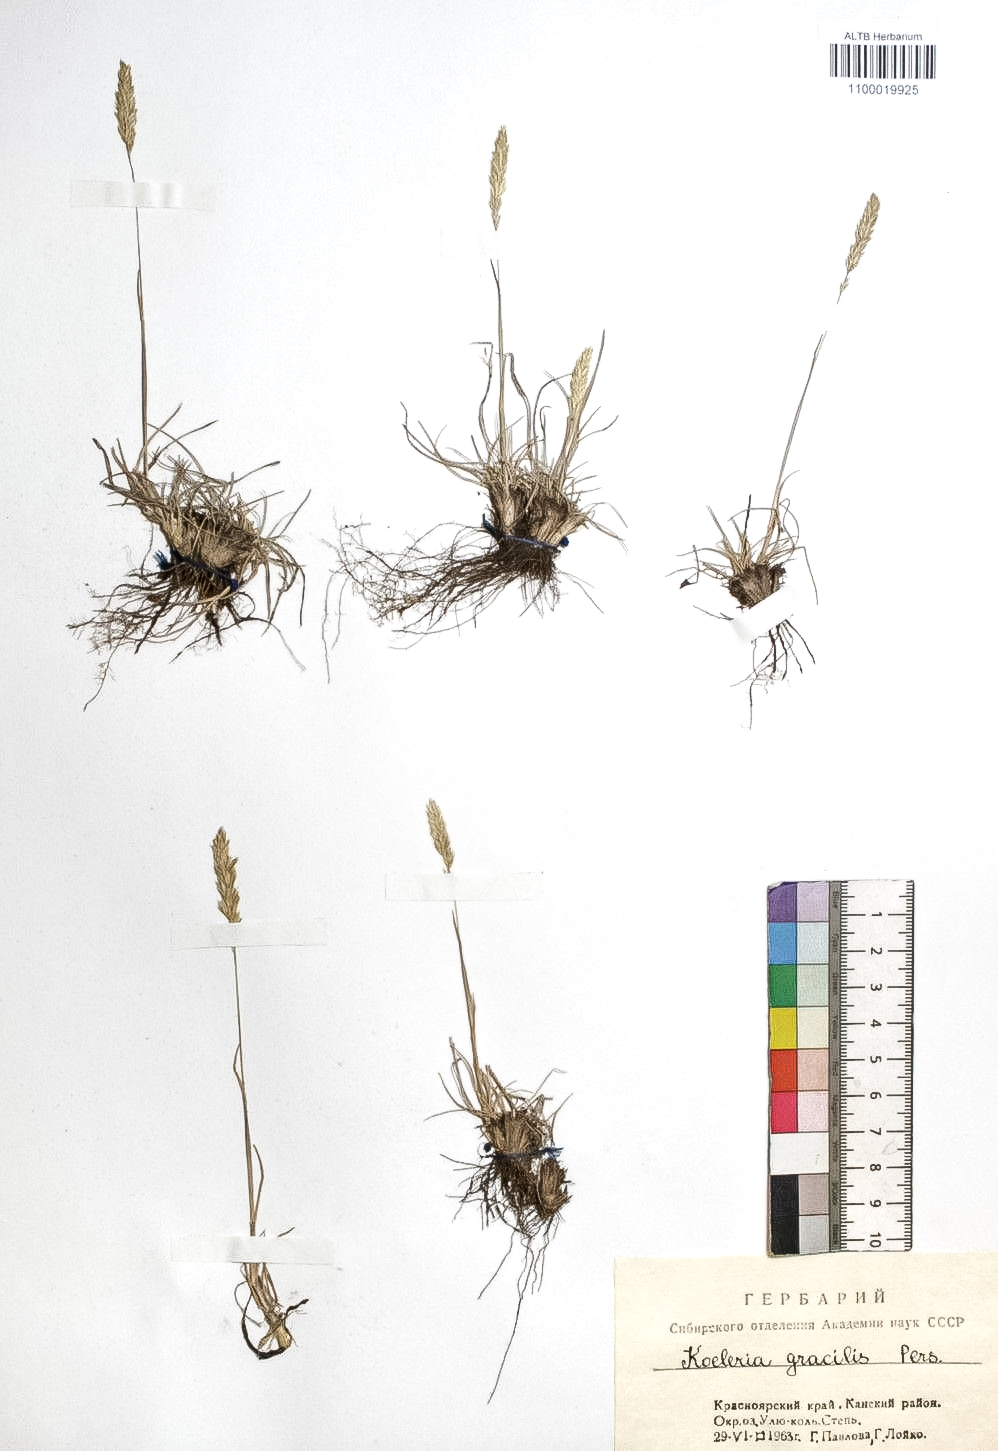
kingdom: Plantae
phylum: Tracheophyta
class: Liliopsida
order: Poales
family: Poaceae
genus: Koeleria
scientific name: Koeleria macrantha
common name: Crested hair-grass
